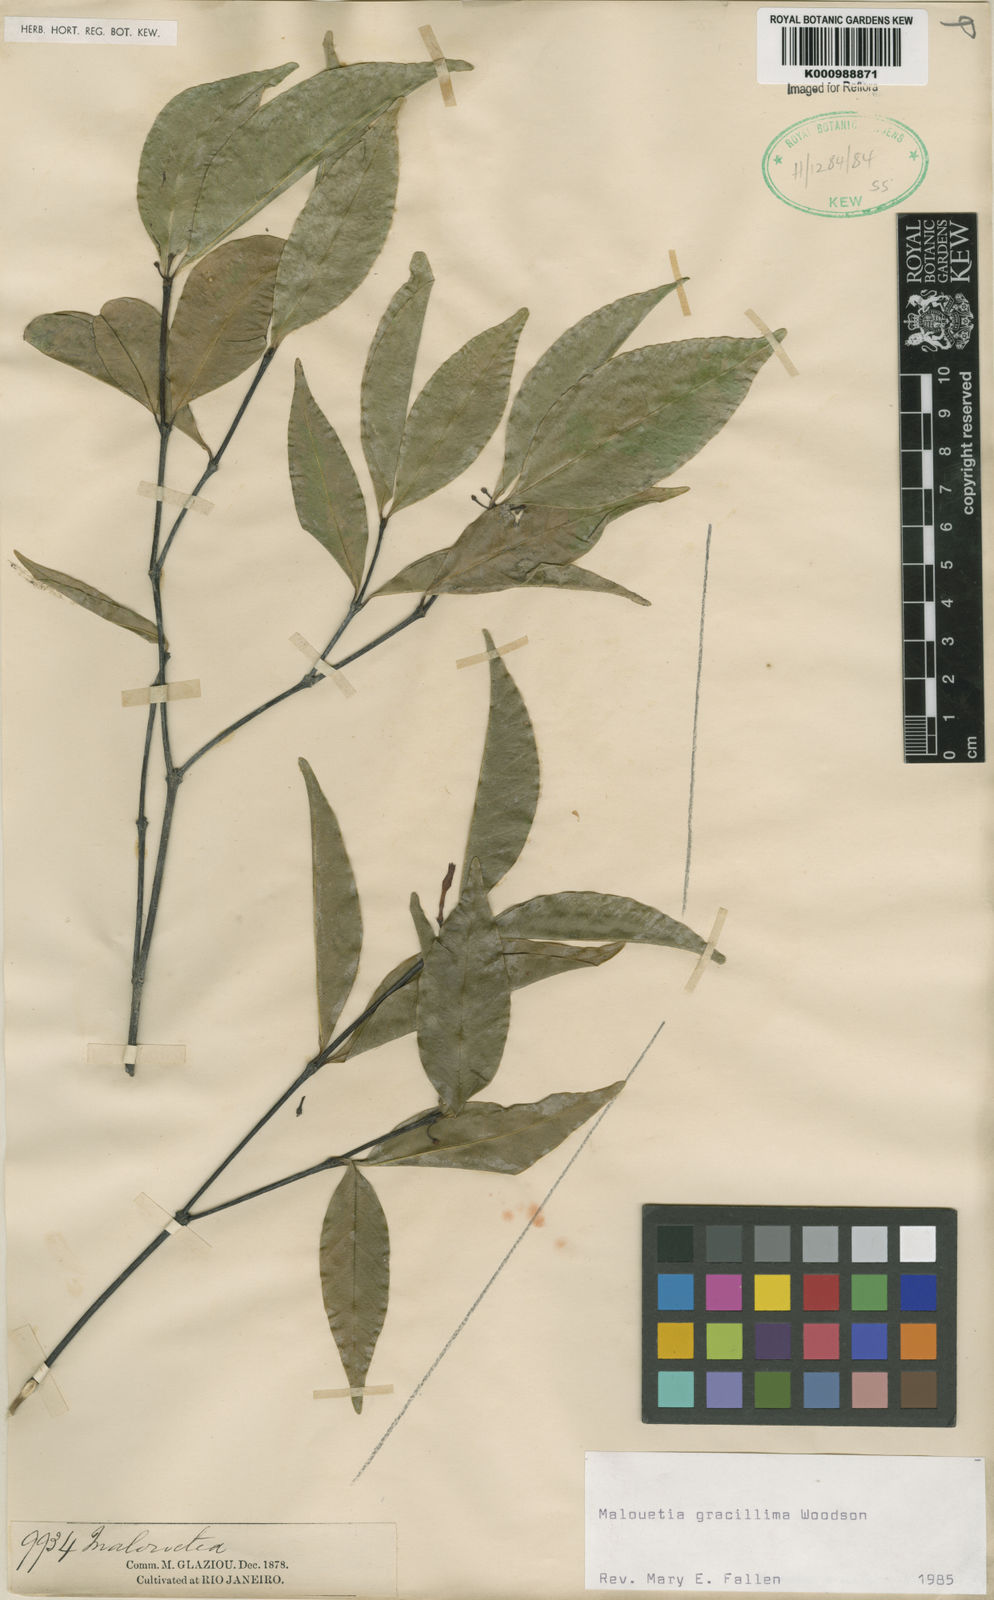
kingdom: Plantae
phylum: Tracheophyta
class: Magnoliopsida
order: Gentianales
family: Apocynaceae
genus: Malouetia
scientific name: Malouetia gracillima
